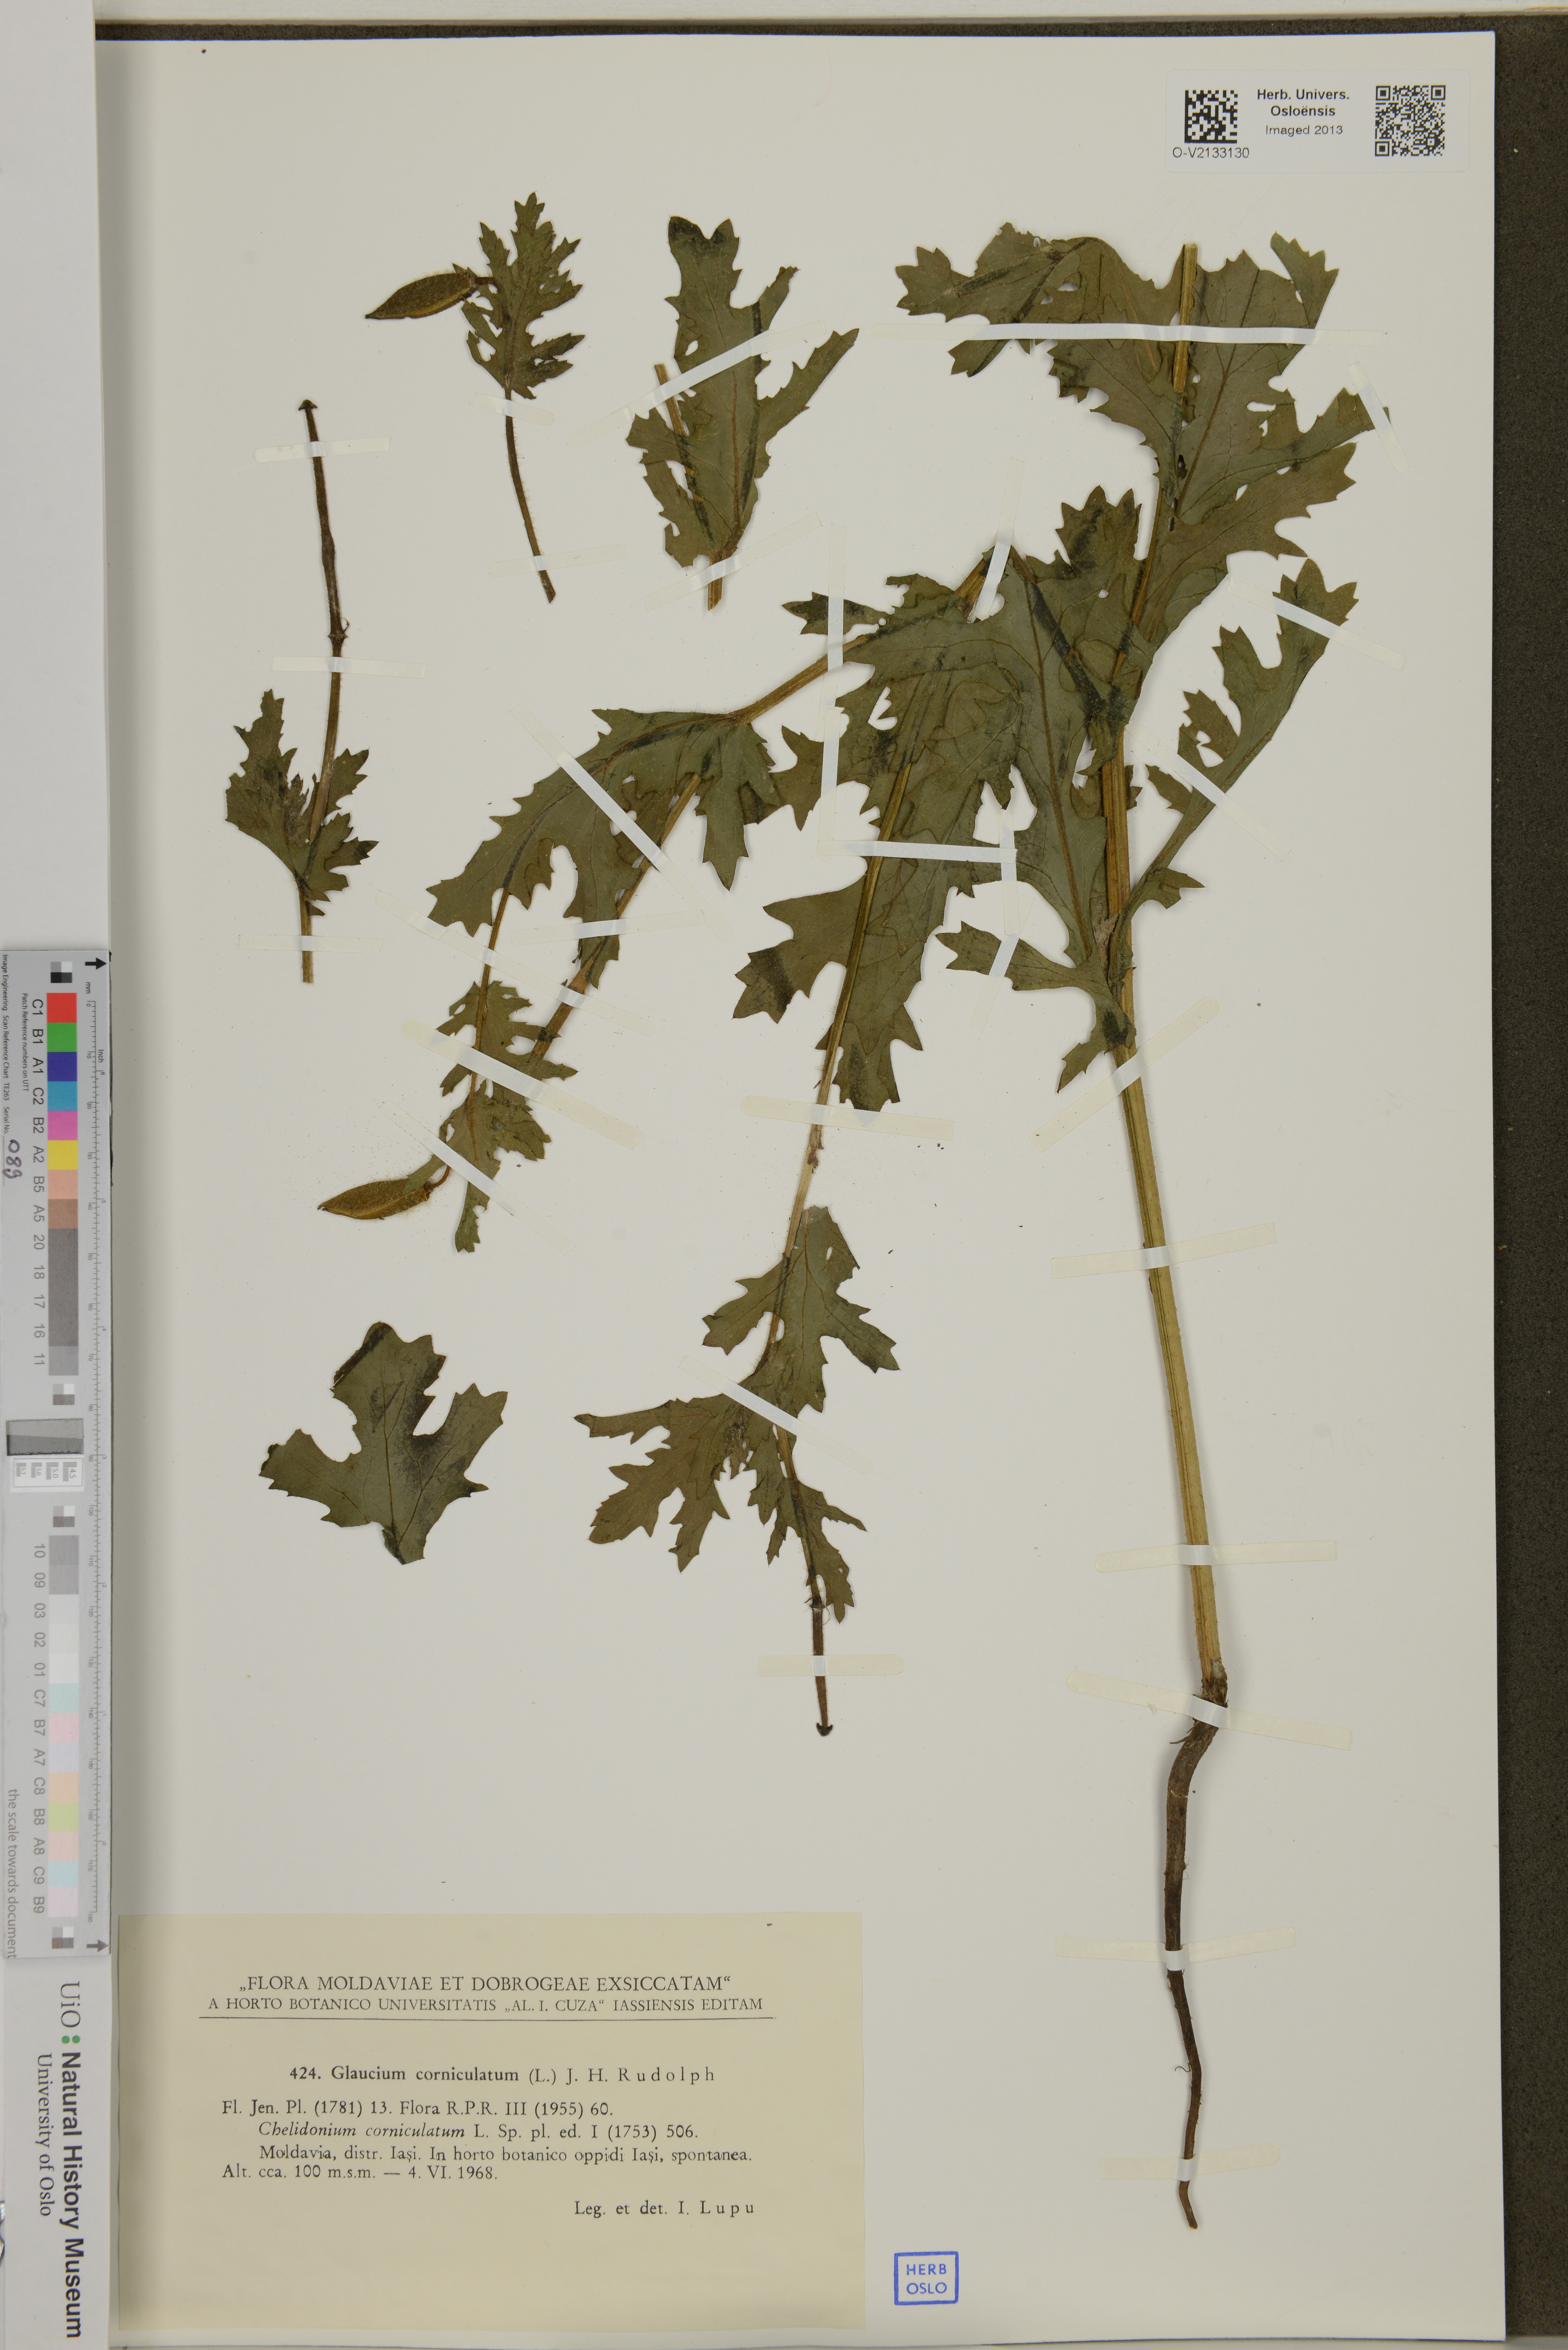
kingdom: Plantae
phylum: Tracheophyta
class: Magnoliopsida
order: Ranunculales
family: Papaveraceae
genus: Glaucium
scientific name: Glaucium corniculatum
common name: Red horned-poppy
